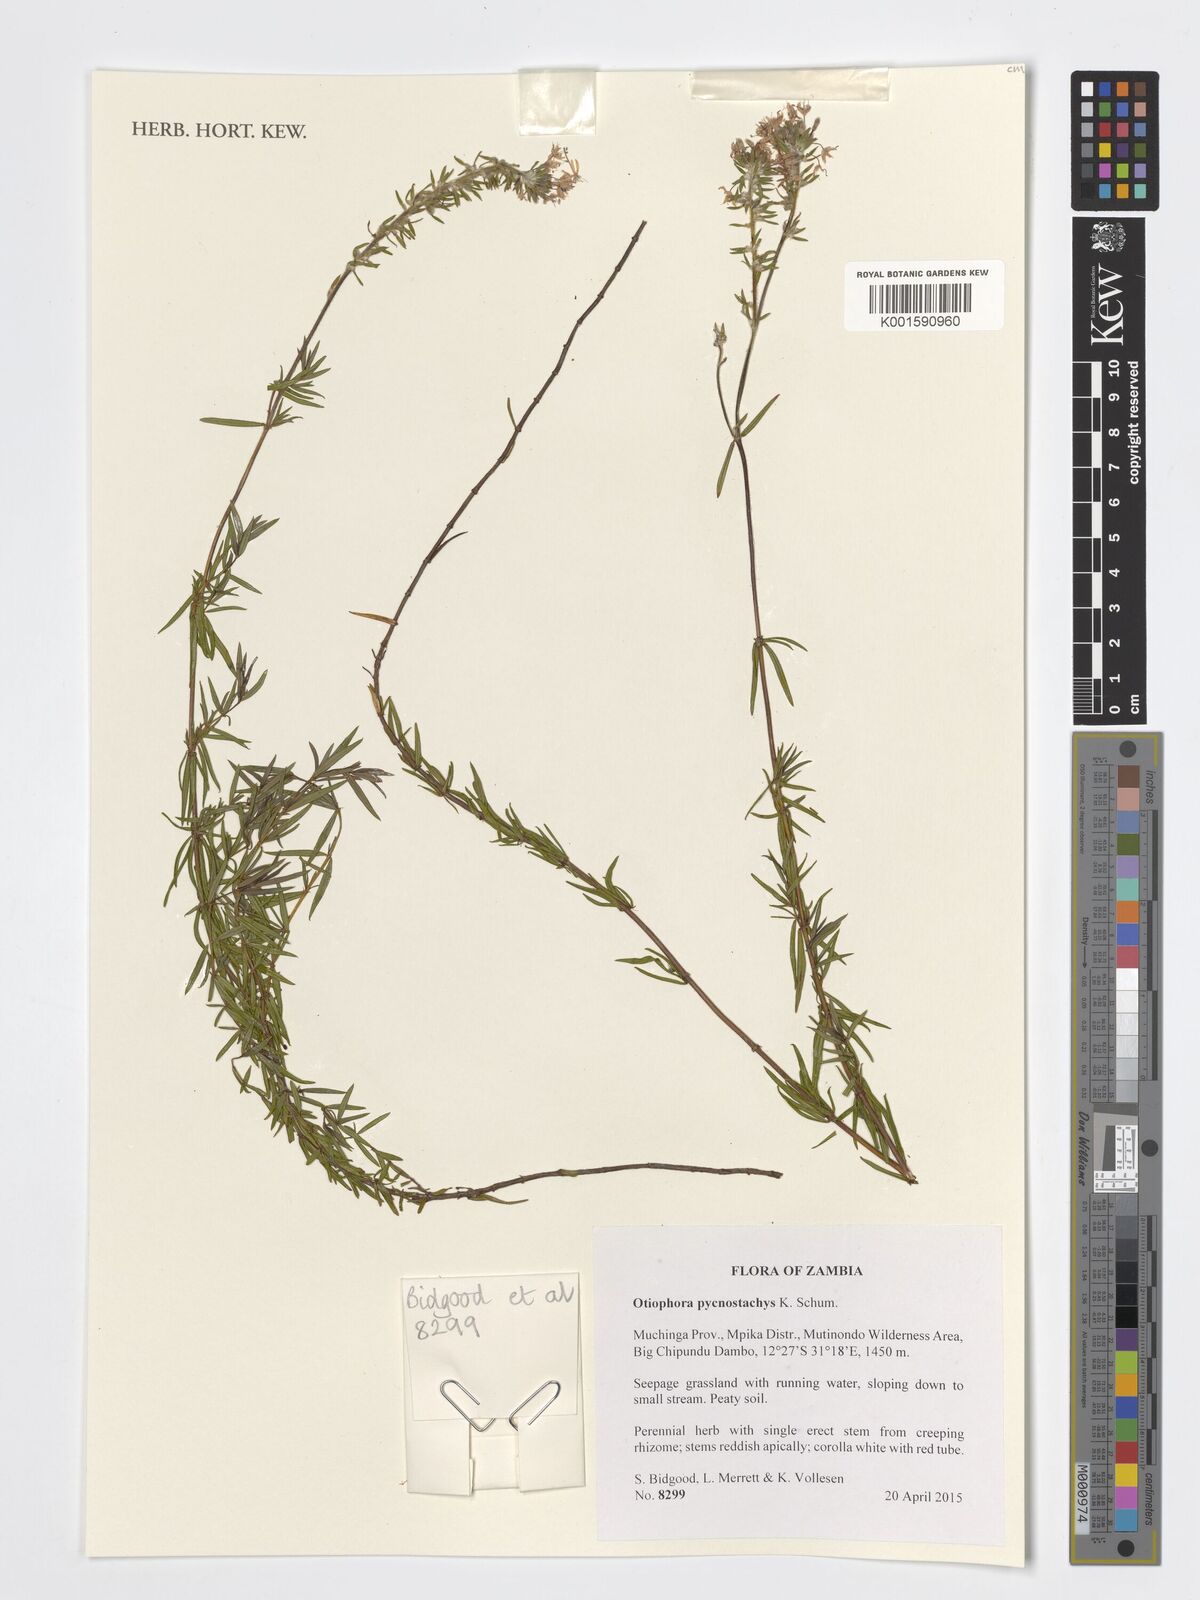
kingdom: Plantae
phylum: Tracheophyta
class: Magnoliopsida
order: Gentianales
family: Rubiaceae
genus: Otiophora
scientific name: Otiophora pycnostachys
